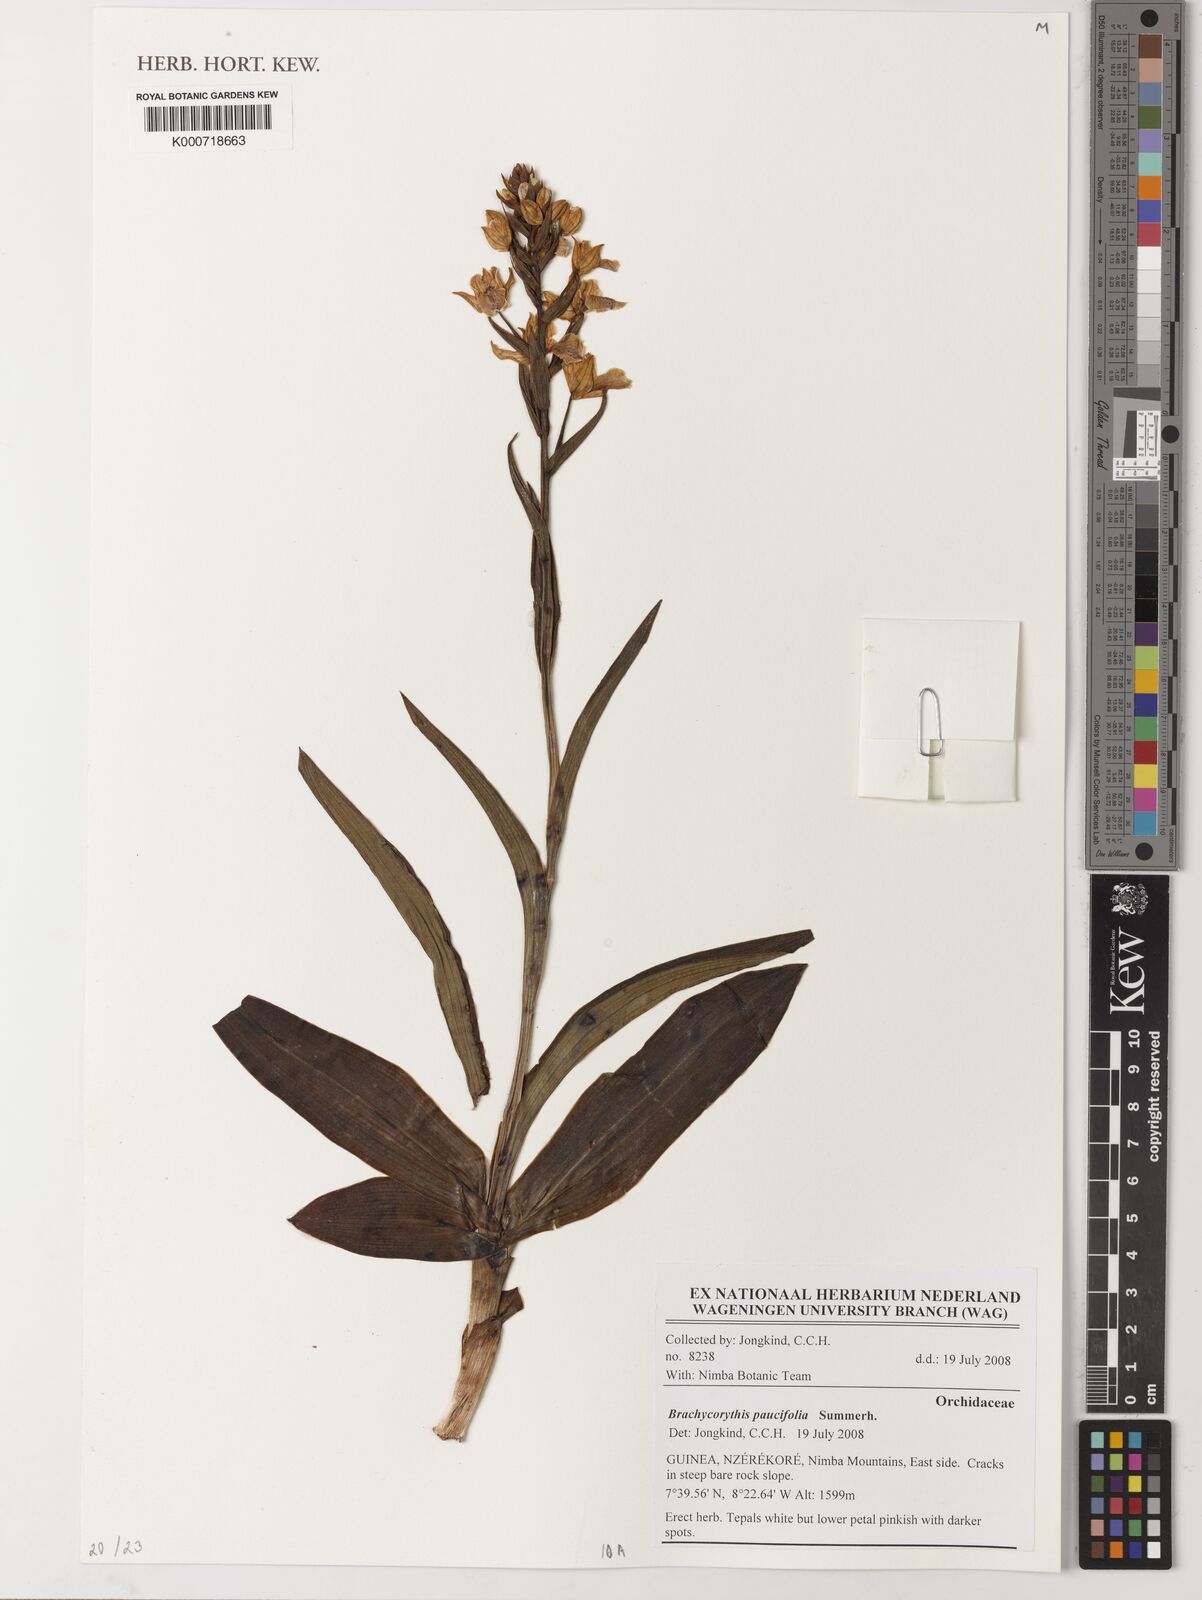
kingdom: Plantae
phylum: Tracheophyta
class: Liliopsida
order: Asparagales
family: Orchidaceae
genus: Brachycorythis
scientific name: Brachycorythis paucifolia
